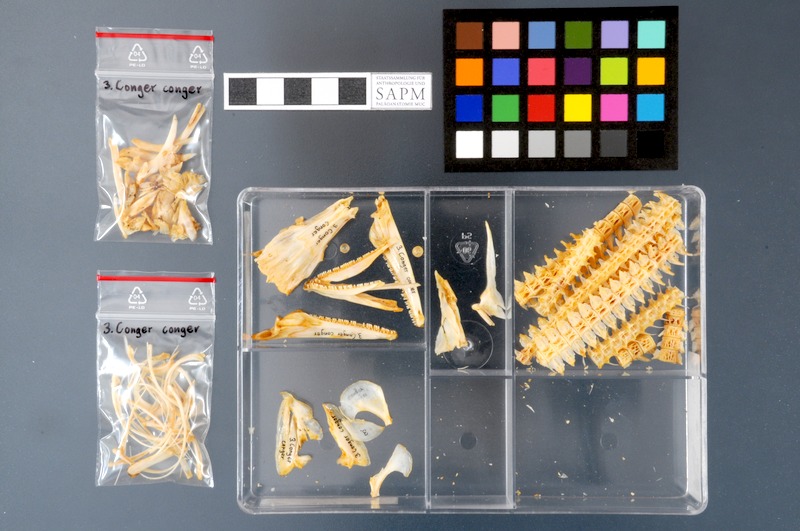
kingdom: Animalia
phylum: Chordata
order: Anguilliformes
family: Congridae
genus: Conger
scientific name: Conger conger
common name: Conger eel
